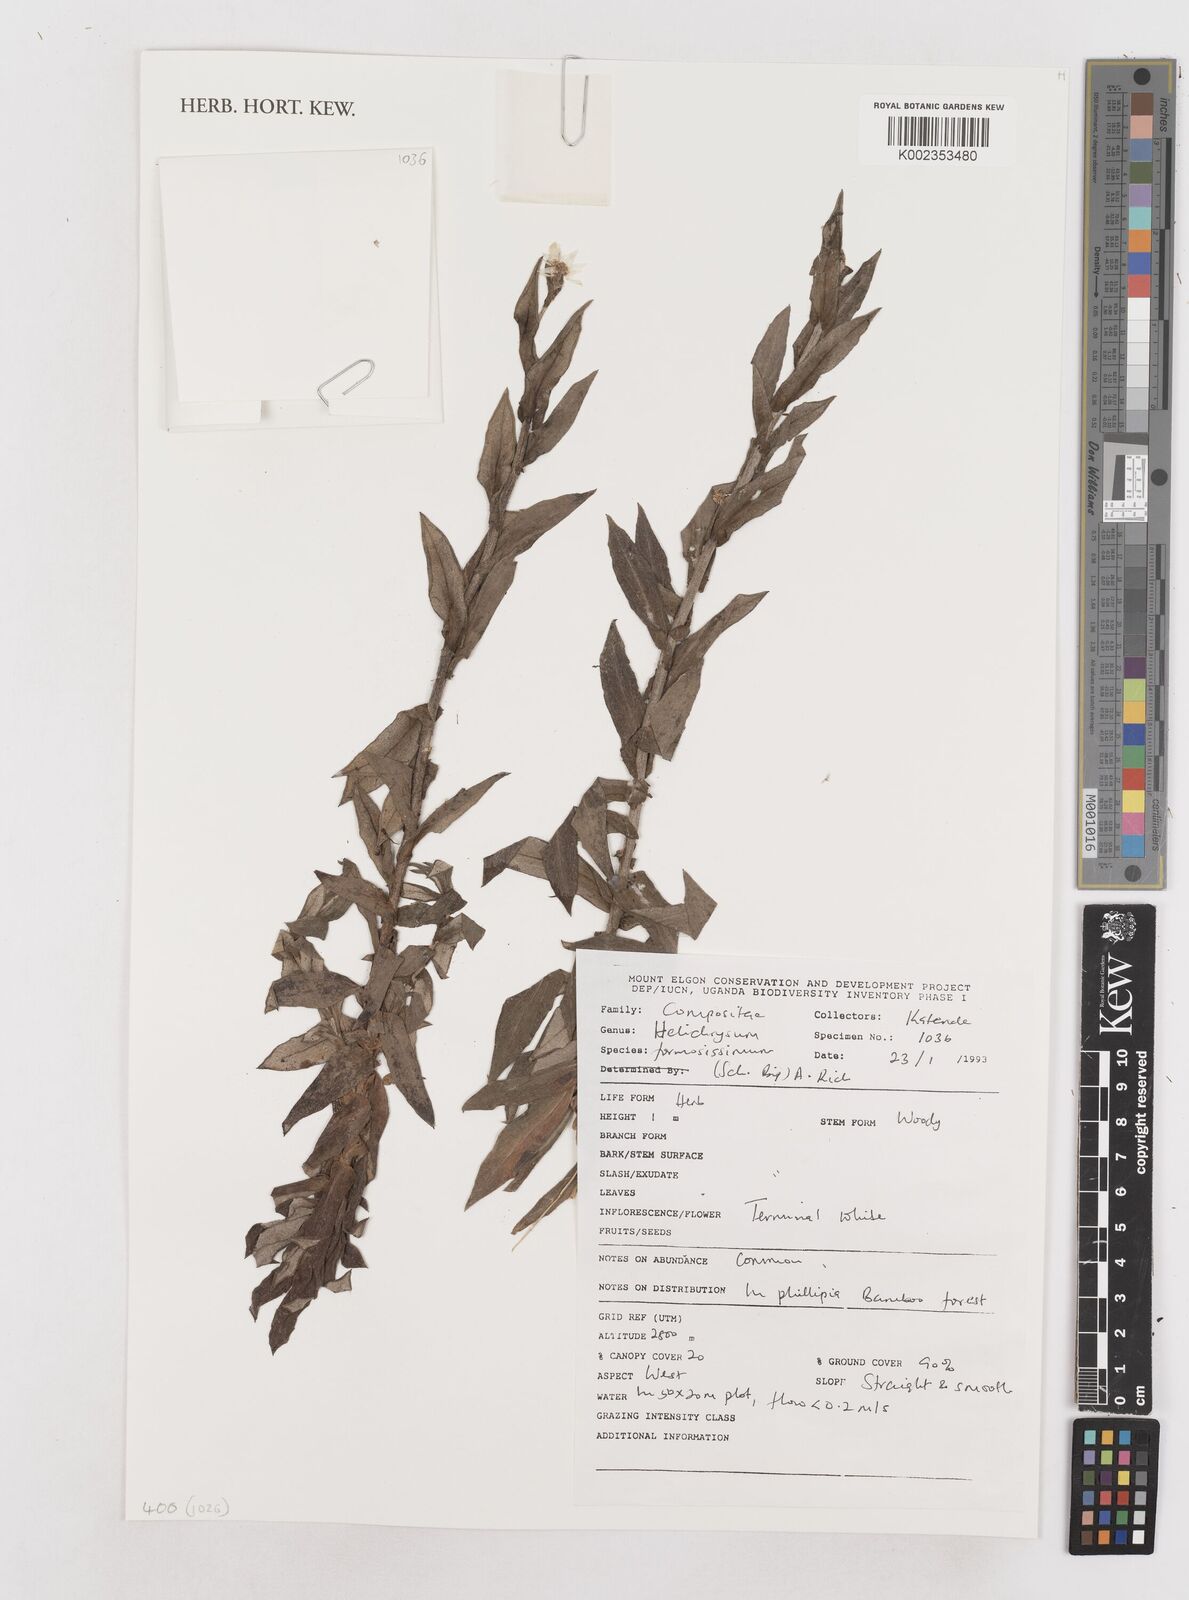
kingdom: Plantae
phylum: Tracheophyta
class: Magnoliopsida
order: Asterales
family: Asteraceae
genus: Helichrysum
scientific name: Helichrysum formosissimum
